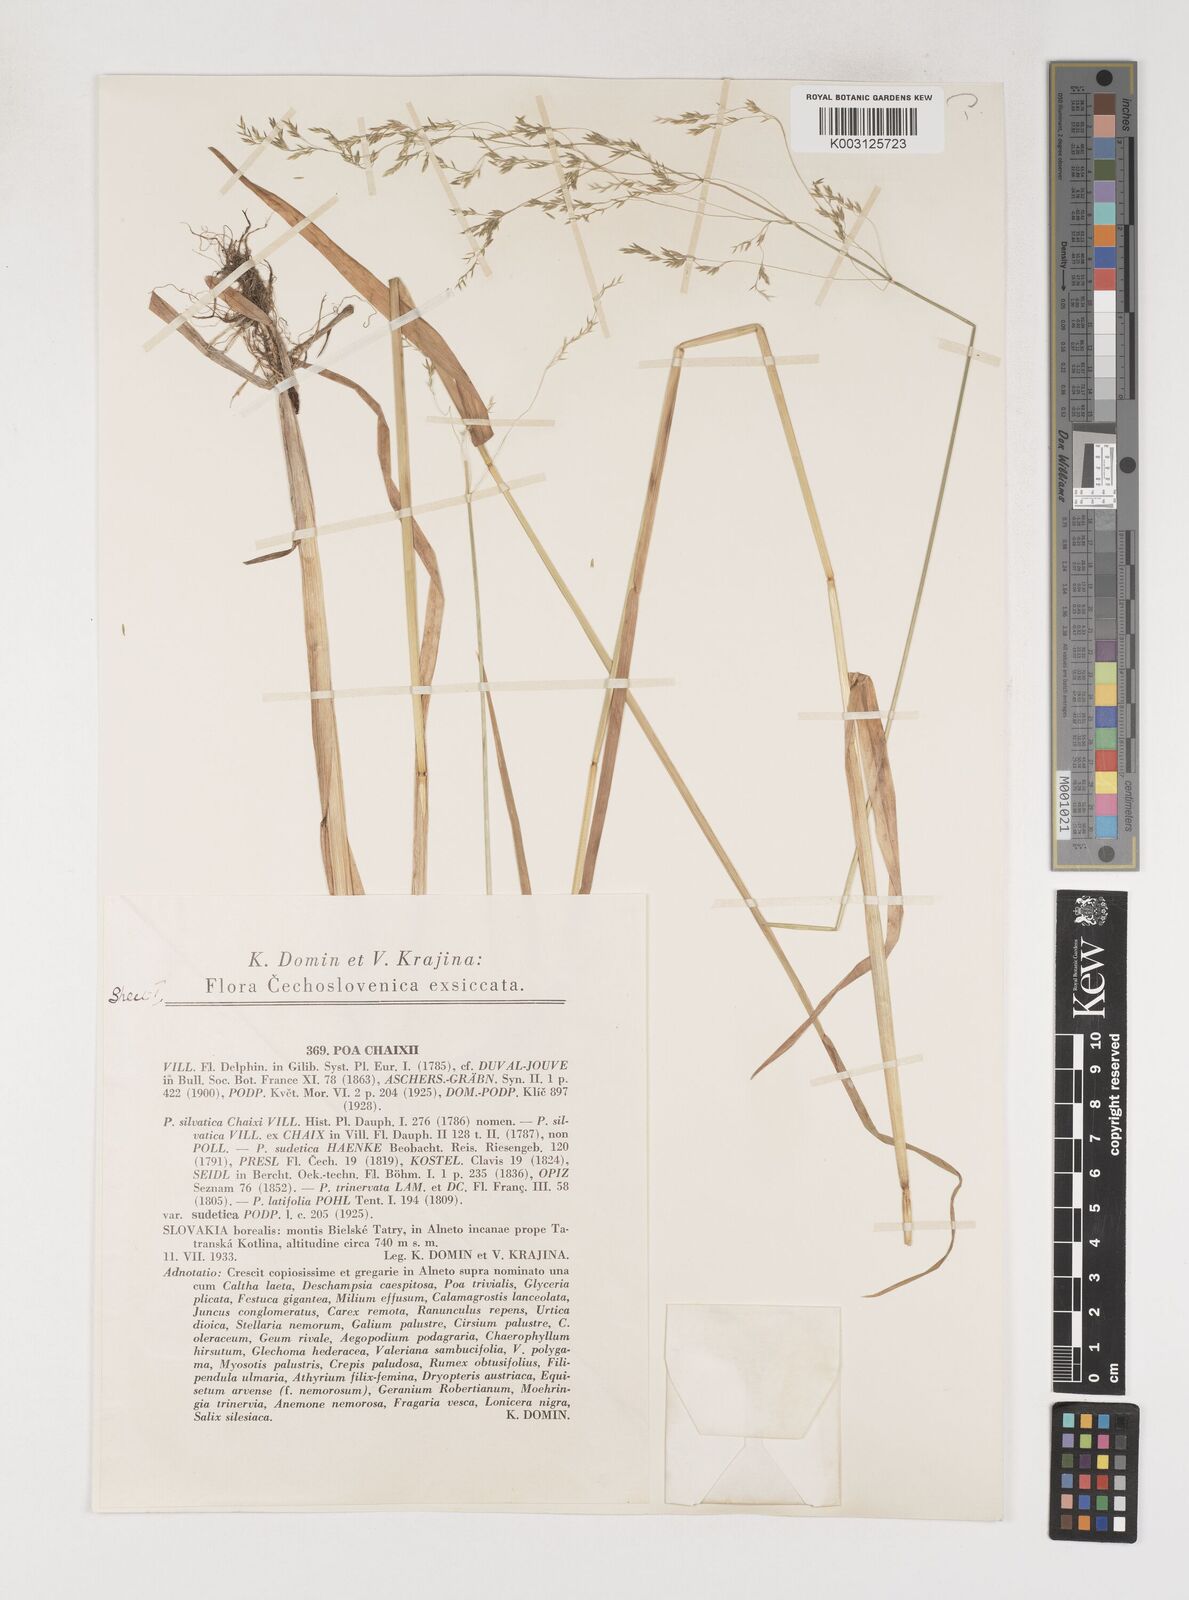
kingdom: Plantae
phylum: Tracheophyta
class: Liliopsida
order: Poales
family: Poaceae
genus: Poa
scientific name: Poa chaixii
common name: Broad-leaved meadow-grass
